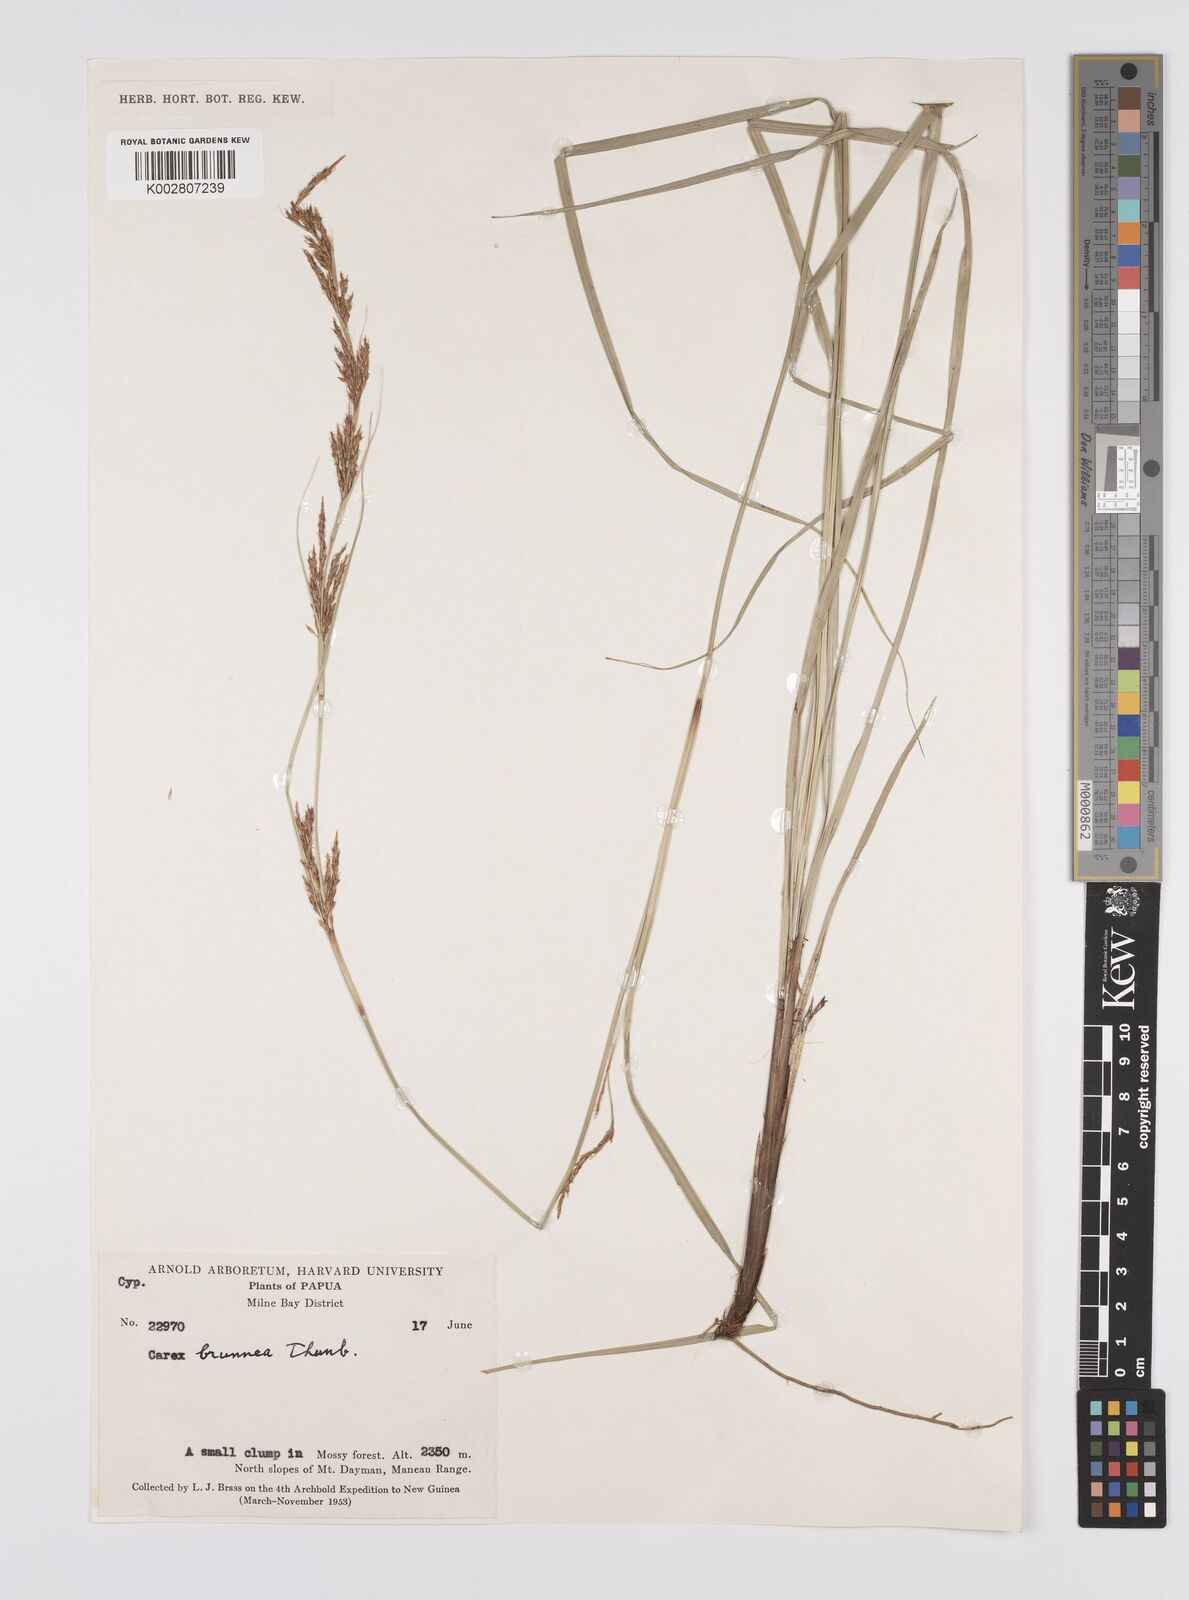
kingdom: Plantae
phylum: Tracheophyta
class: Liliopsida
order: Poales
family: Cyperaceae
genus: Carex
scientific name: Carex brunnea
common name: Greater brown sedge
